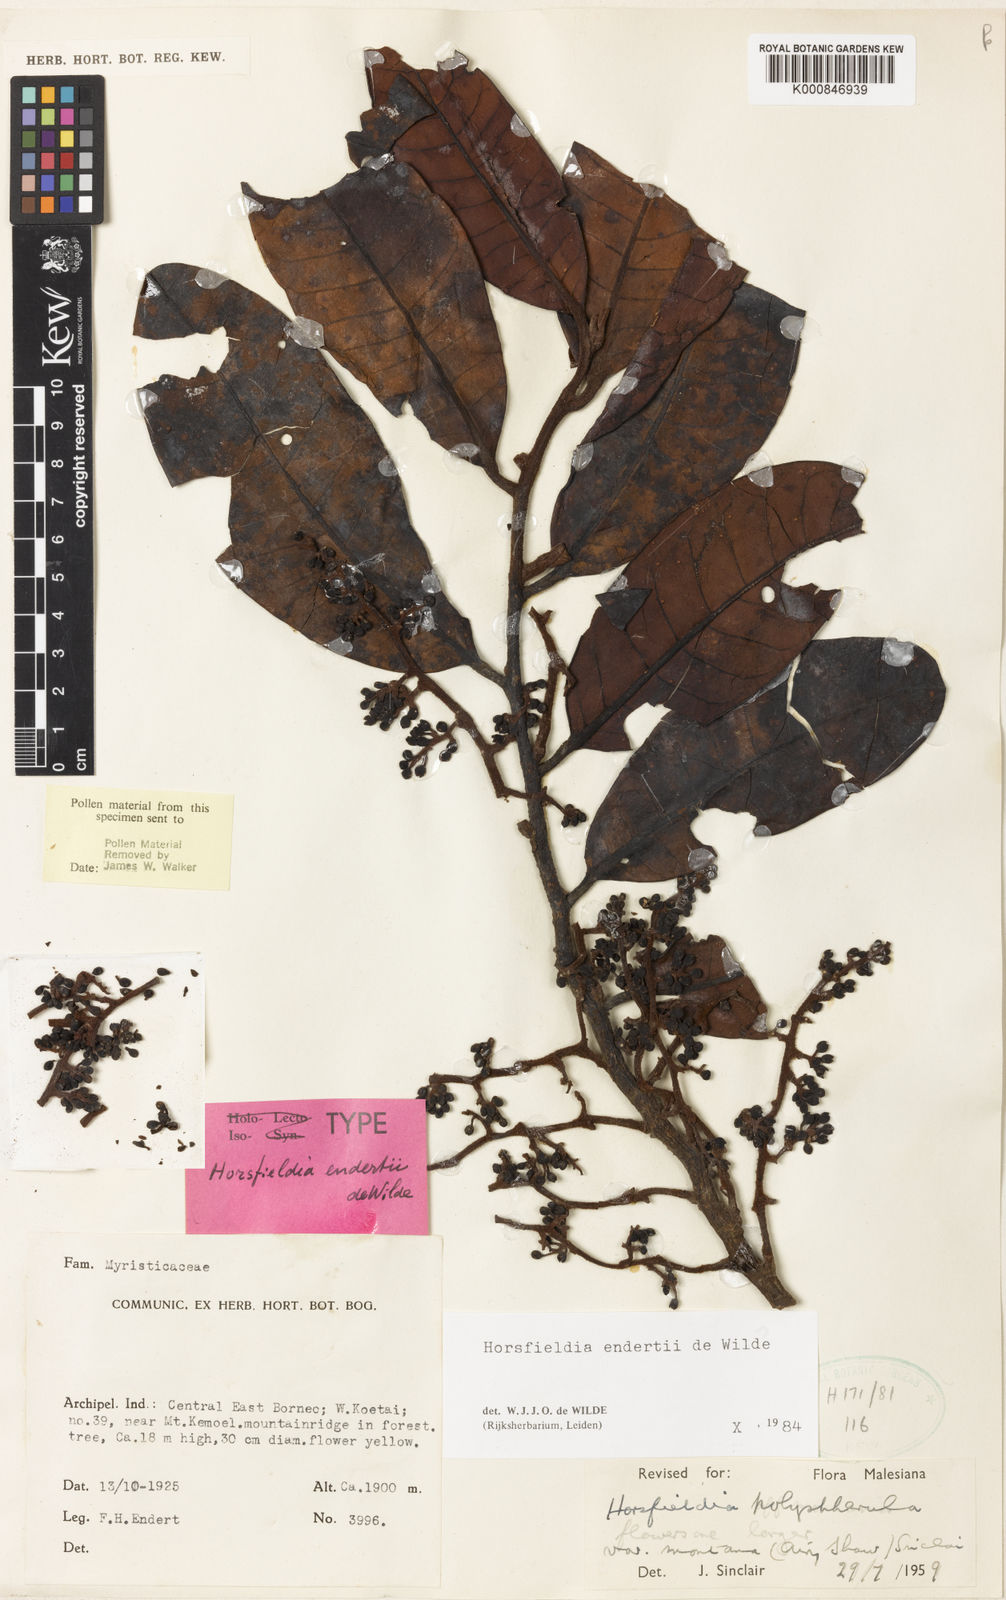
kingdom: Plantae
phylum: Tracheophyta
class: Magnoliopsida
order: Magnoliales
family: Myristicaceae
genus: Horsfieldia
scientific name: Horsfieldia endertii
